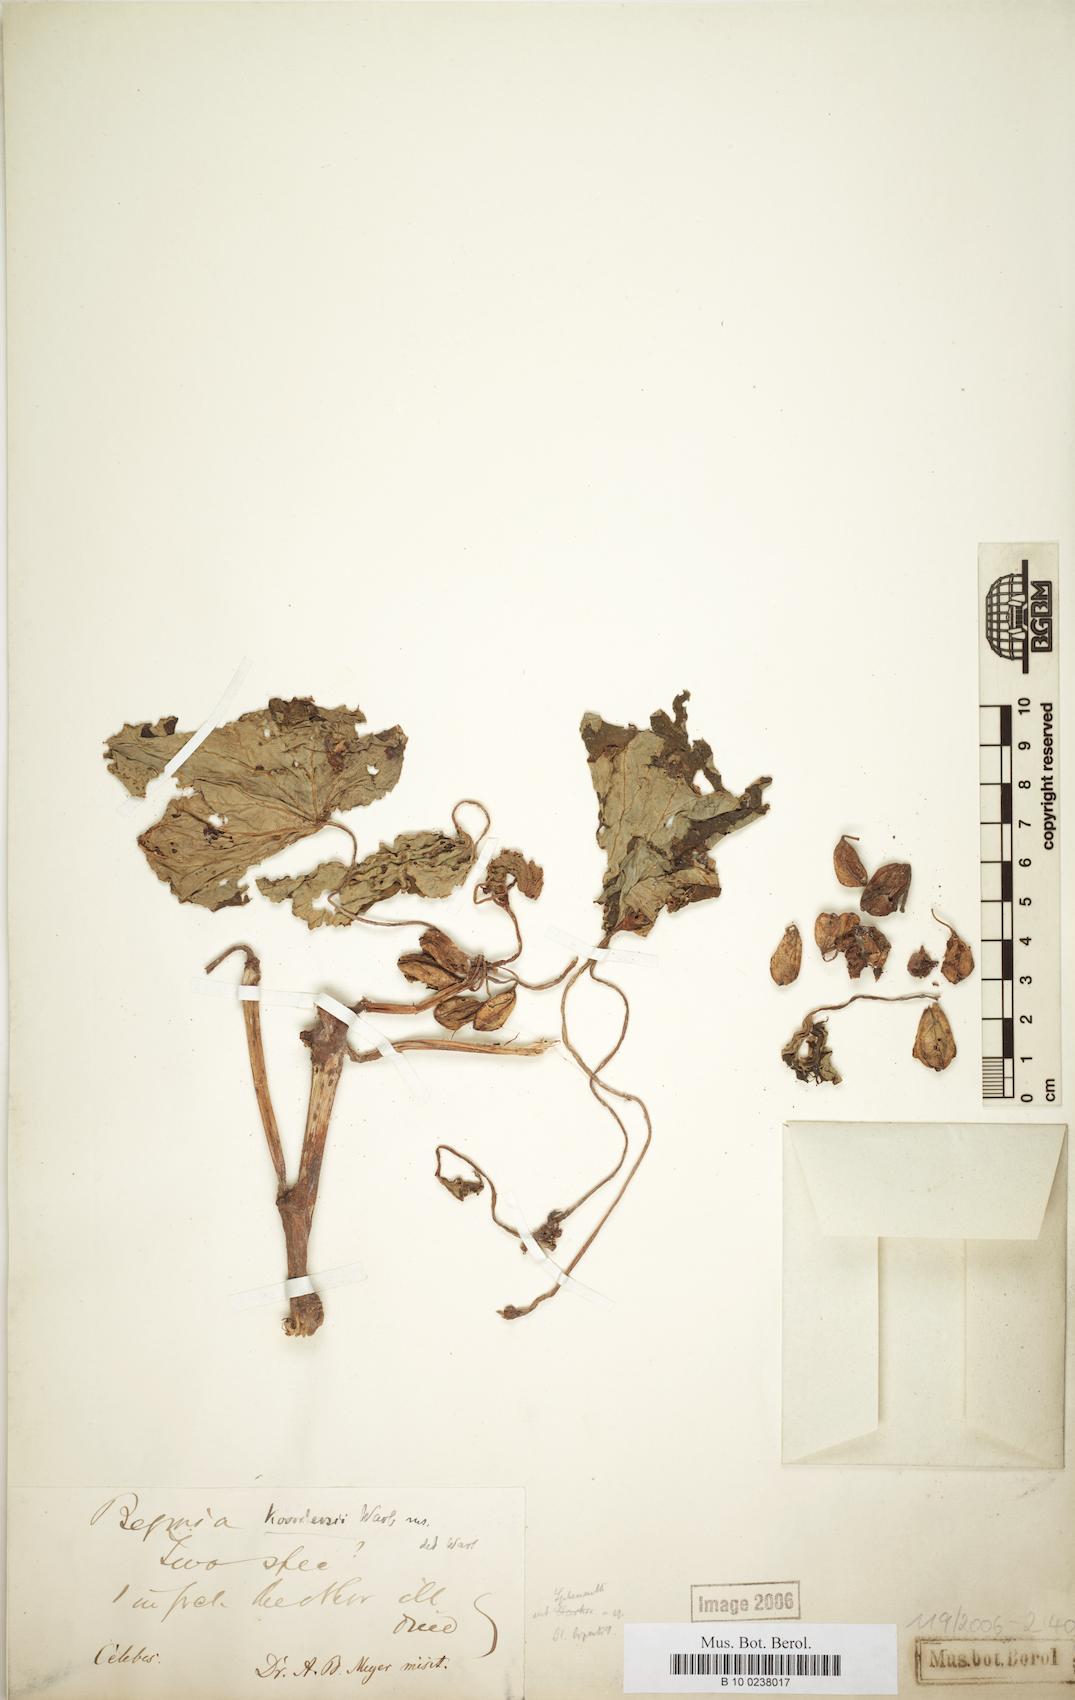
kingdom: Plantae
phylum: Tracheophyta
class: Magnoliopsida
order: Cucurbitales
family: Begoniaceae
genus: Begonia
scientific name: Begonia koordersii
